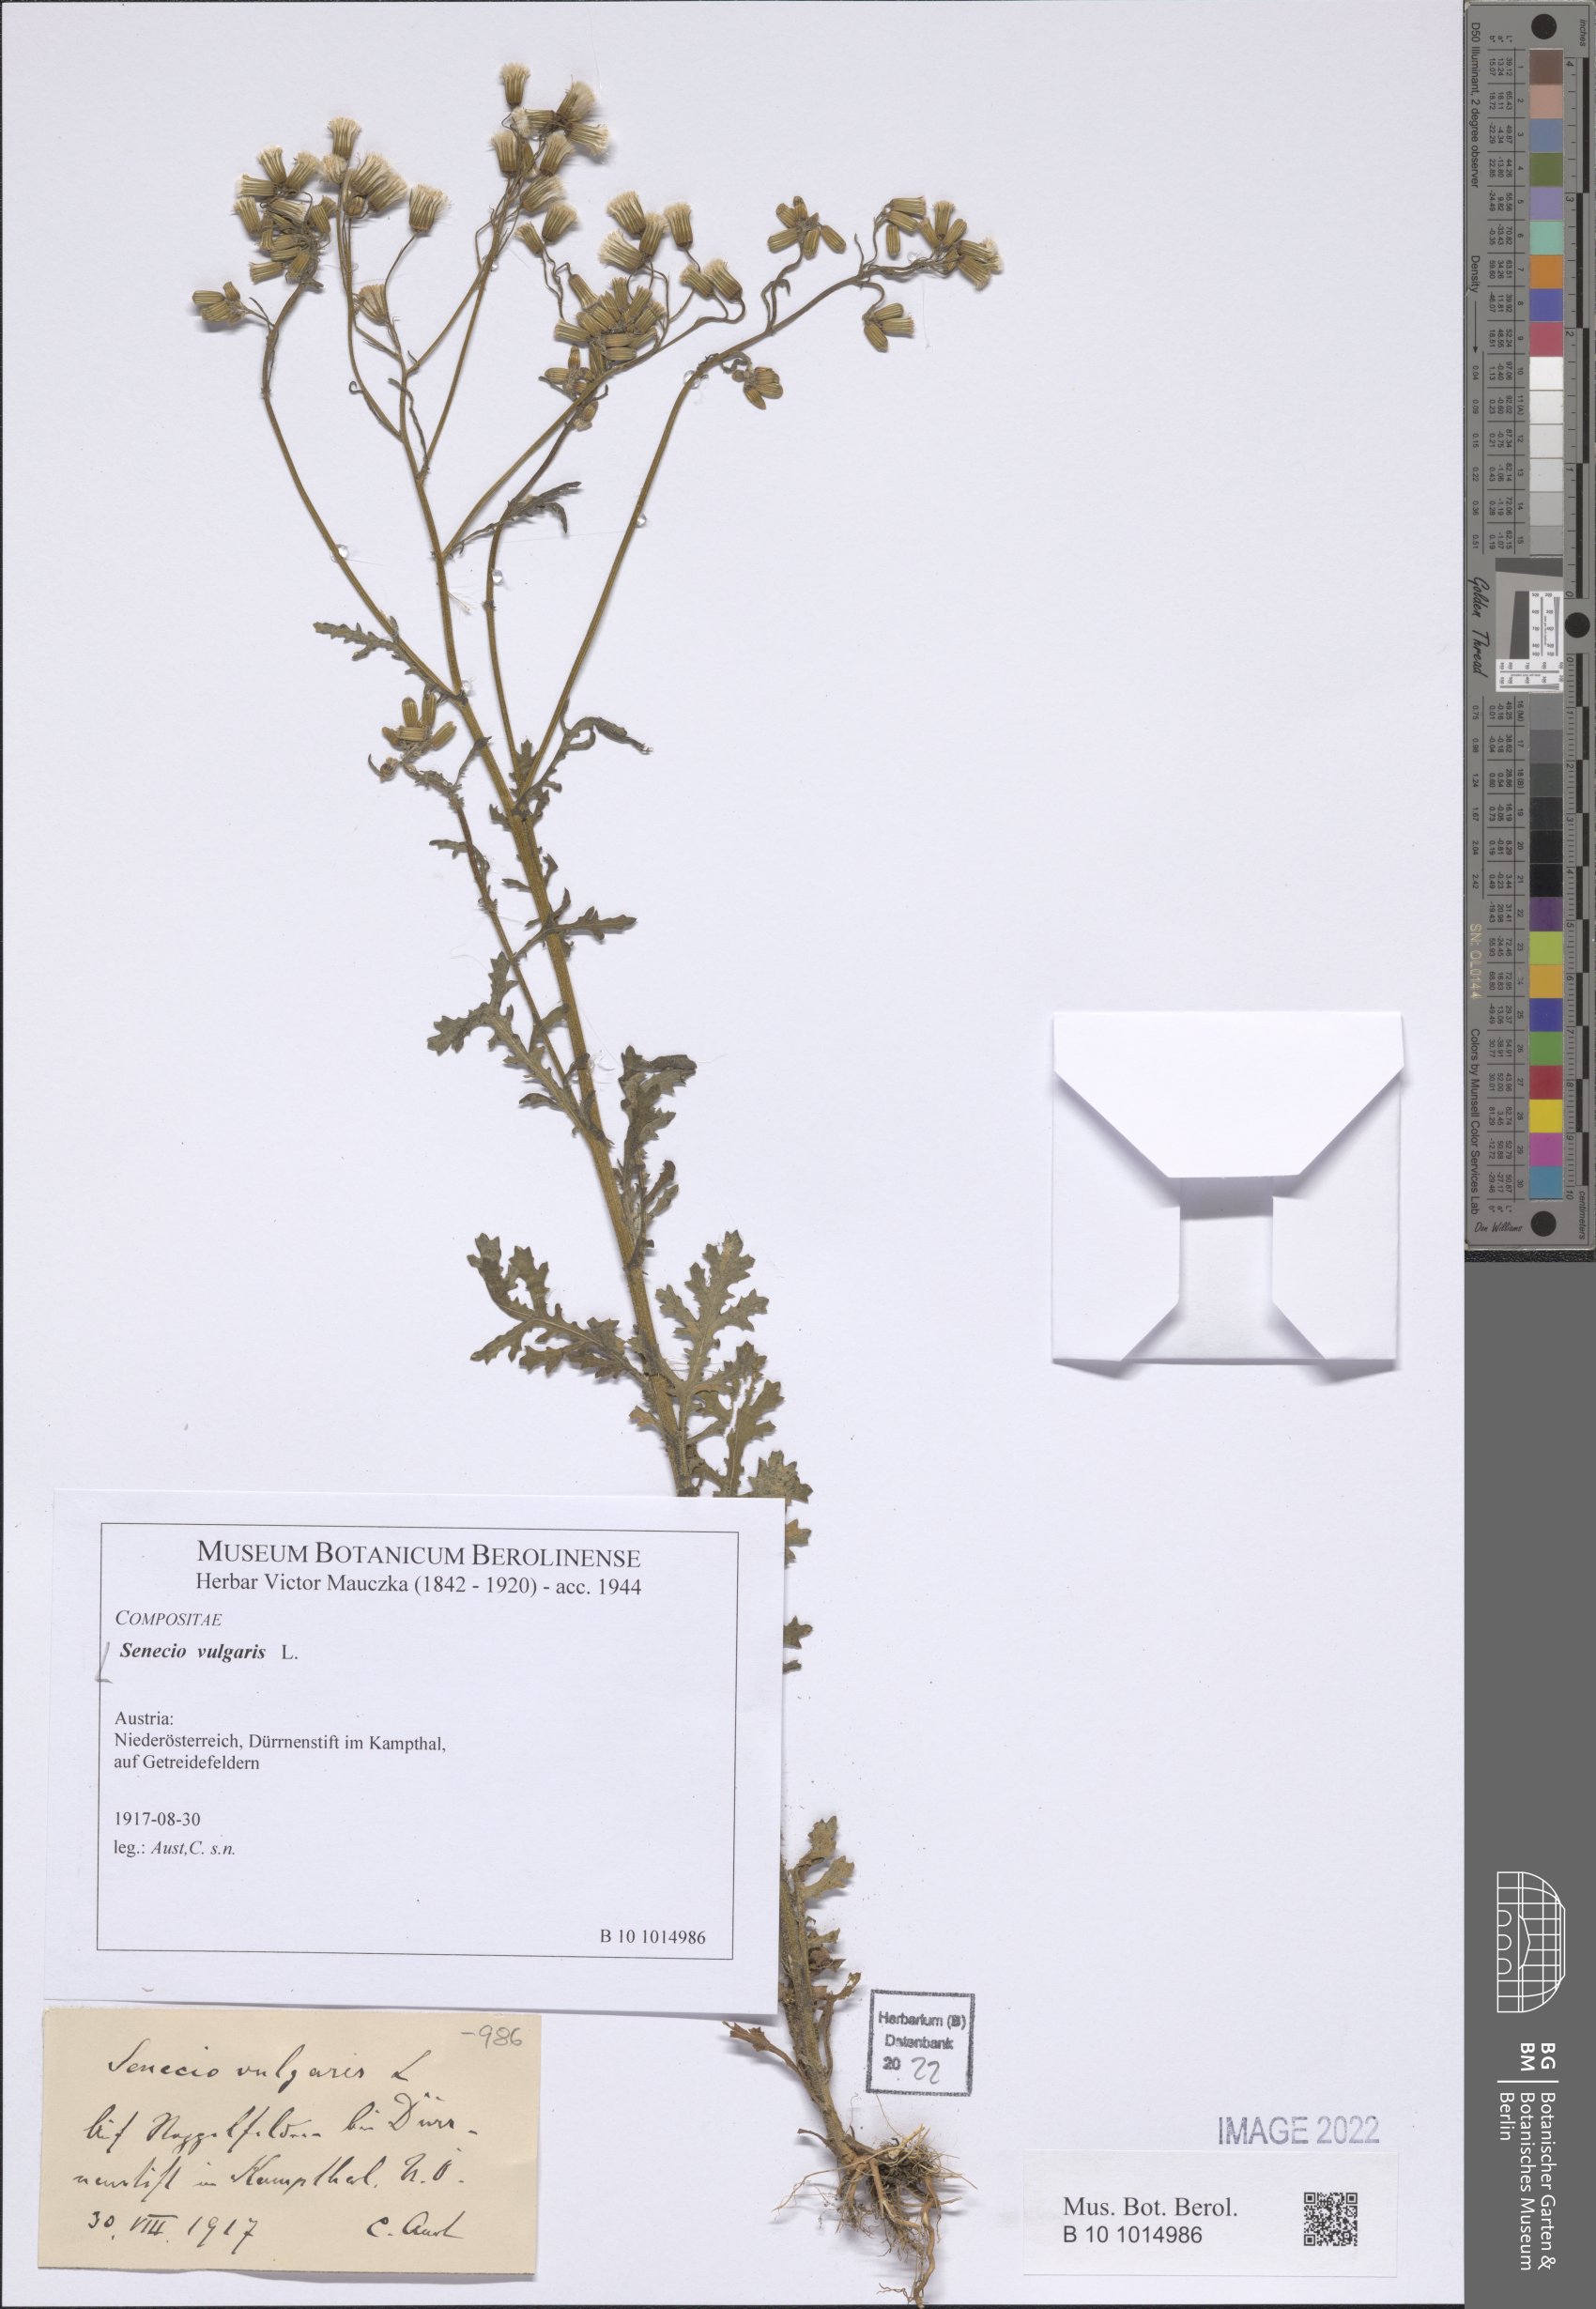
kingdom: Plantae
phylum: Tracheophyta
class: Magnoliopsida
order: Asterales
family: Asteraceae
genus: Senecio
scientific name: Senecio vulgaris
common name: Old-man-in-the-spring
